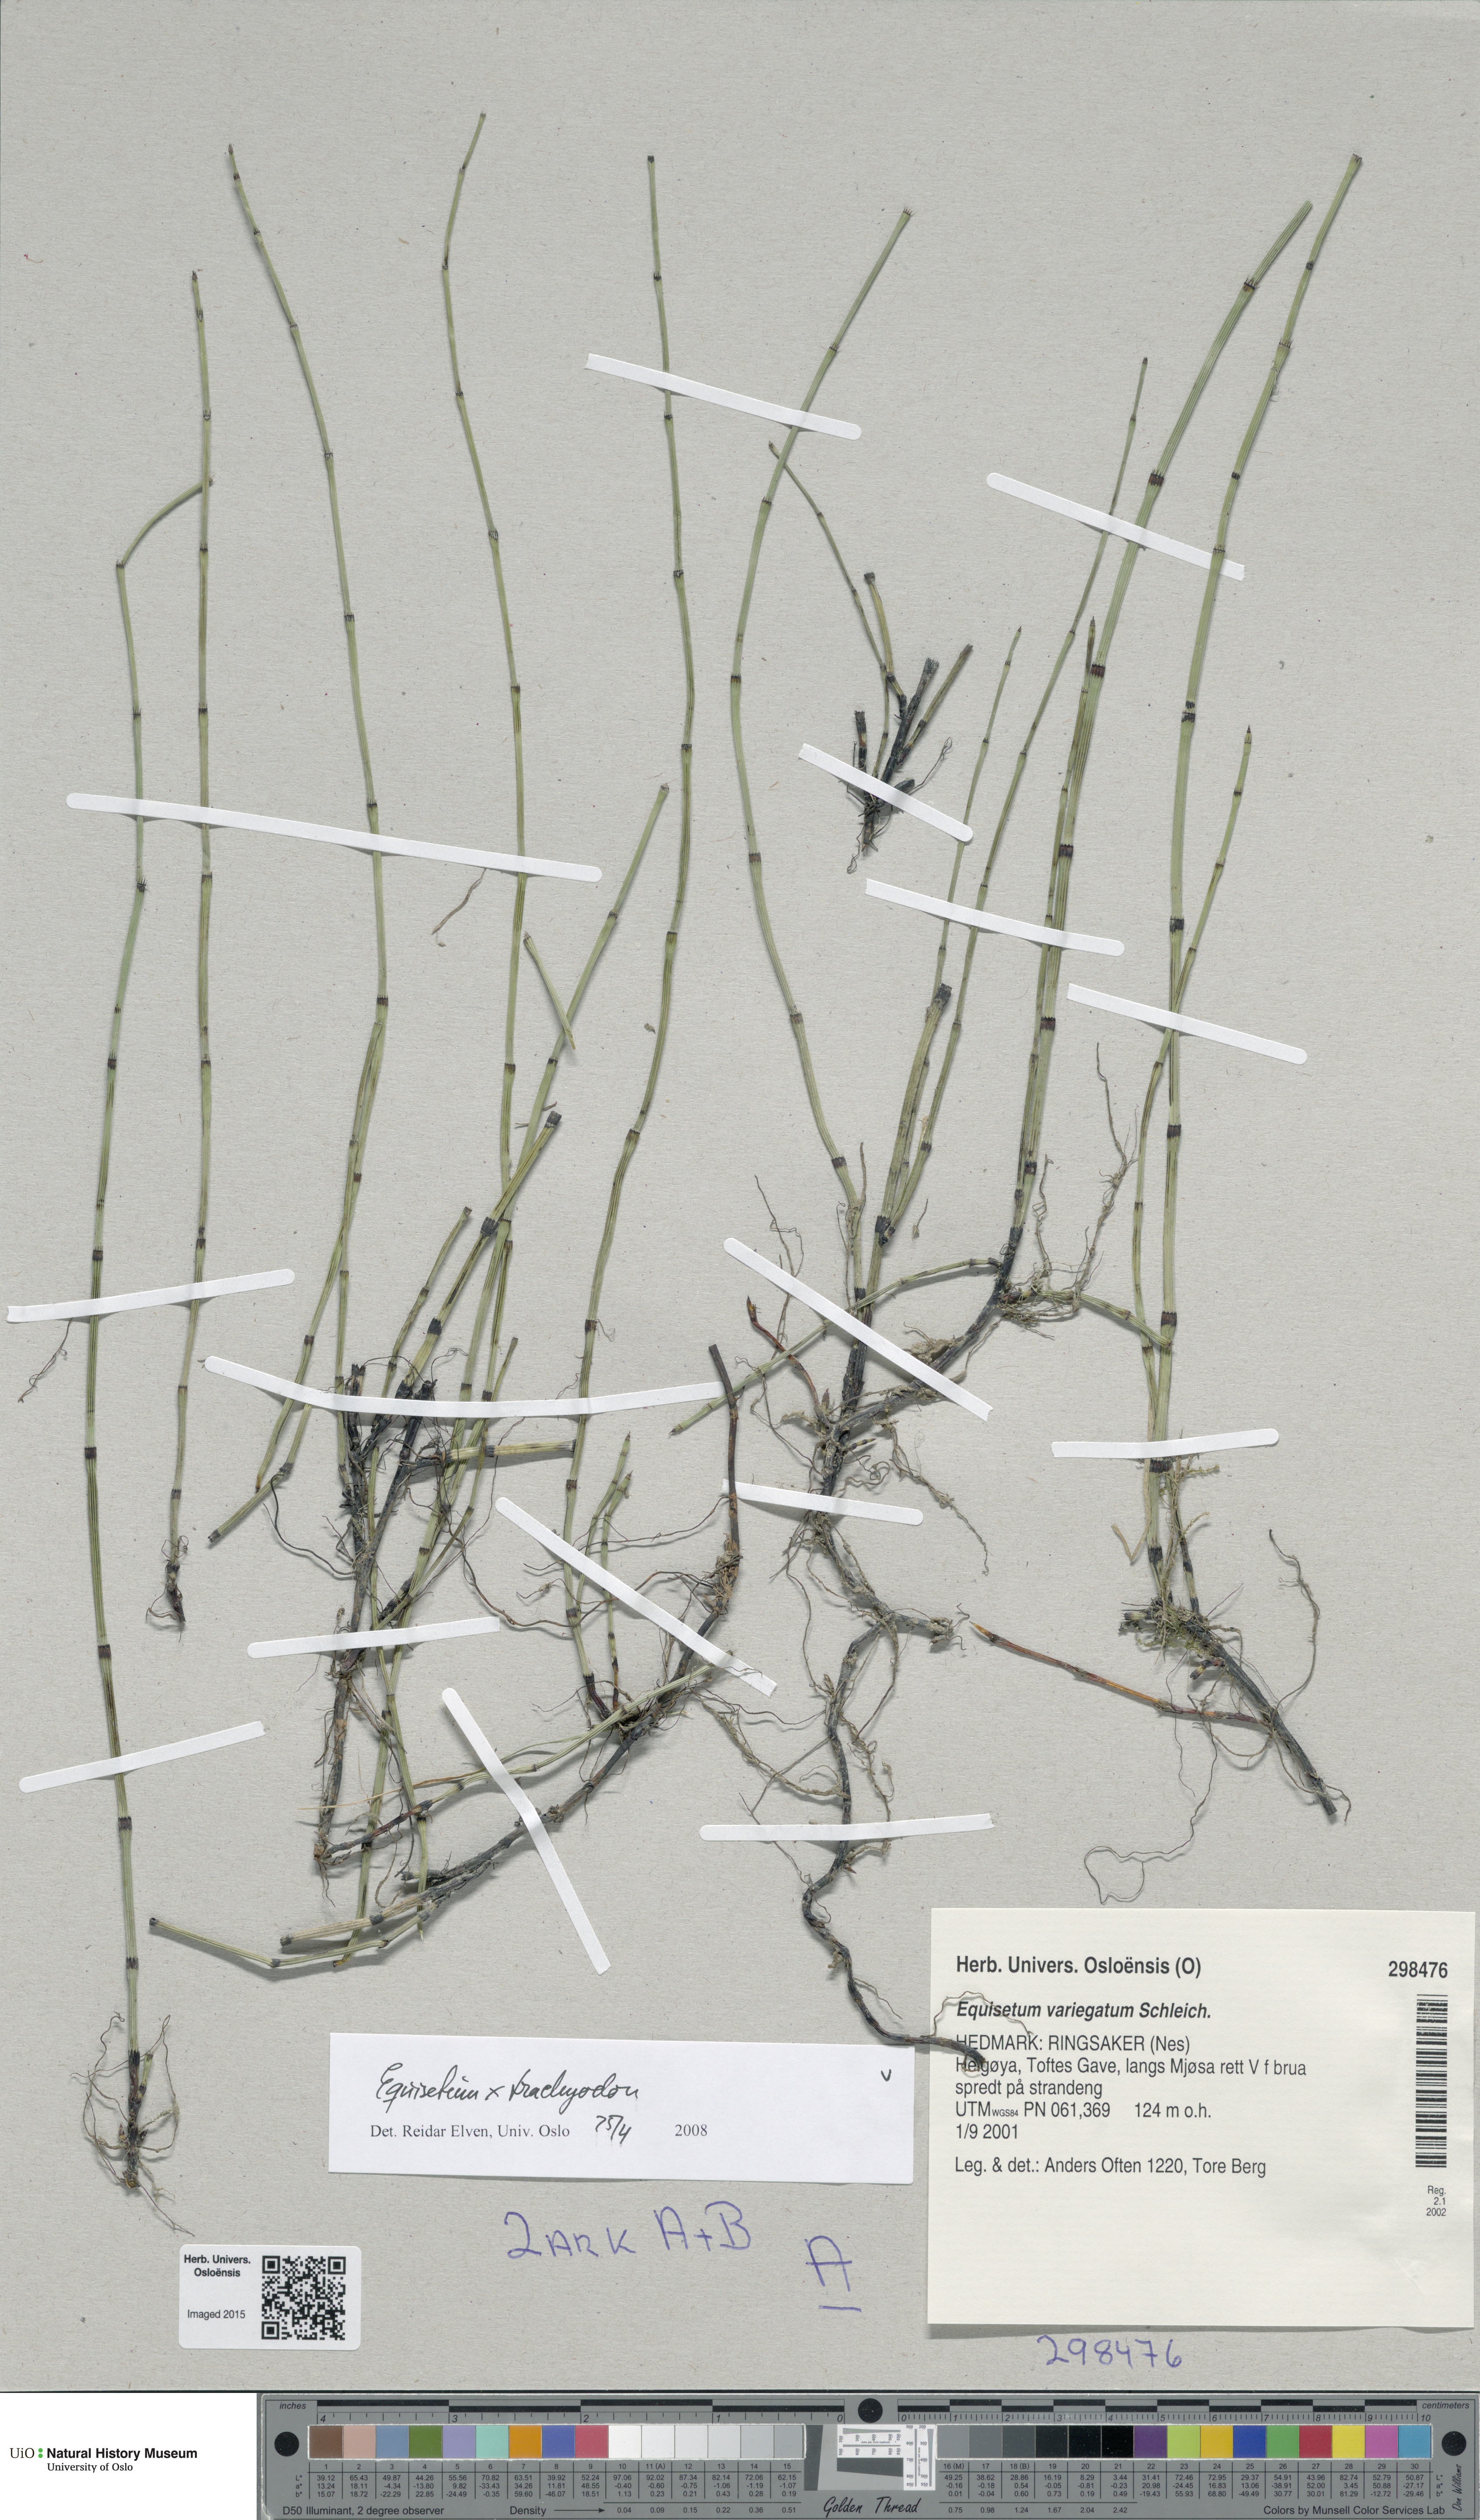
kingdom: Plantae
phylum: Tracheophyta
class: Polypodiopsida
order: Equisetales
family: Equisetaceae
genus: Equisetum
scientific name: Equisetum trachyodon
